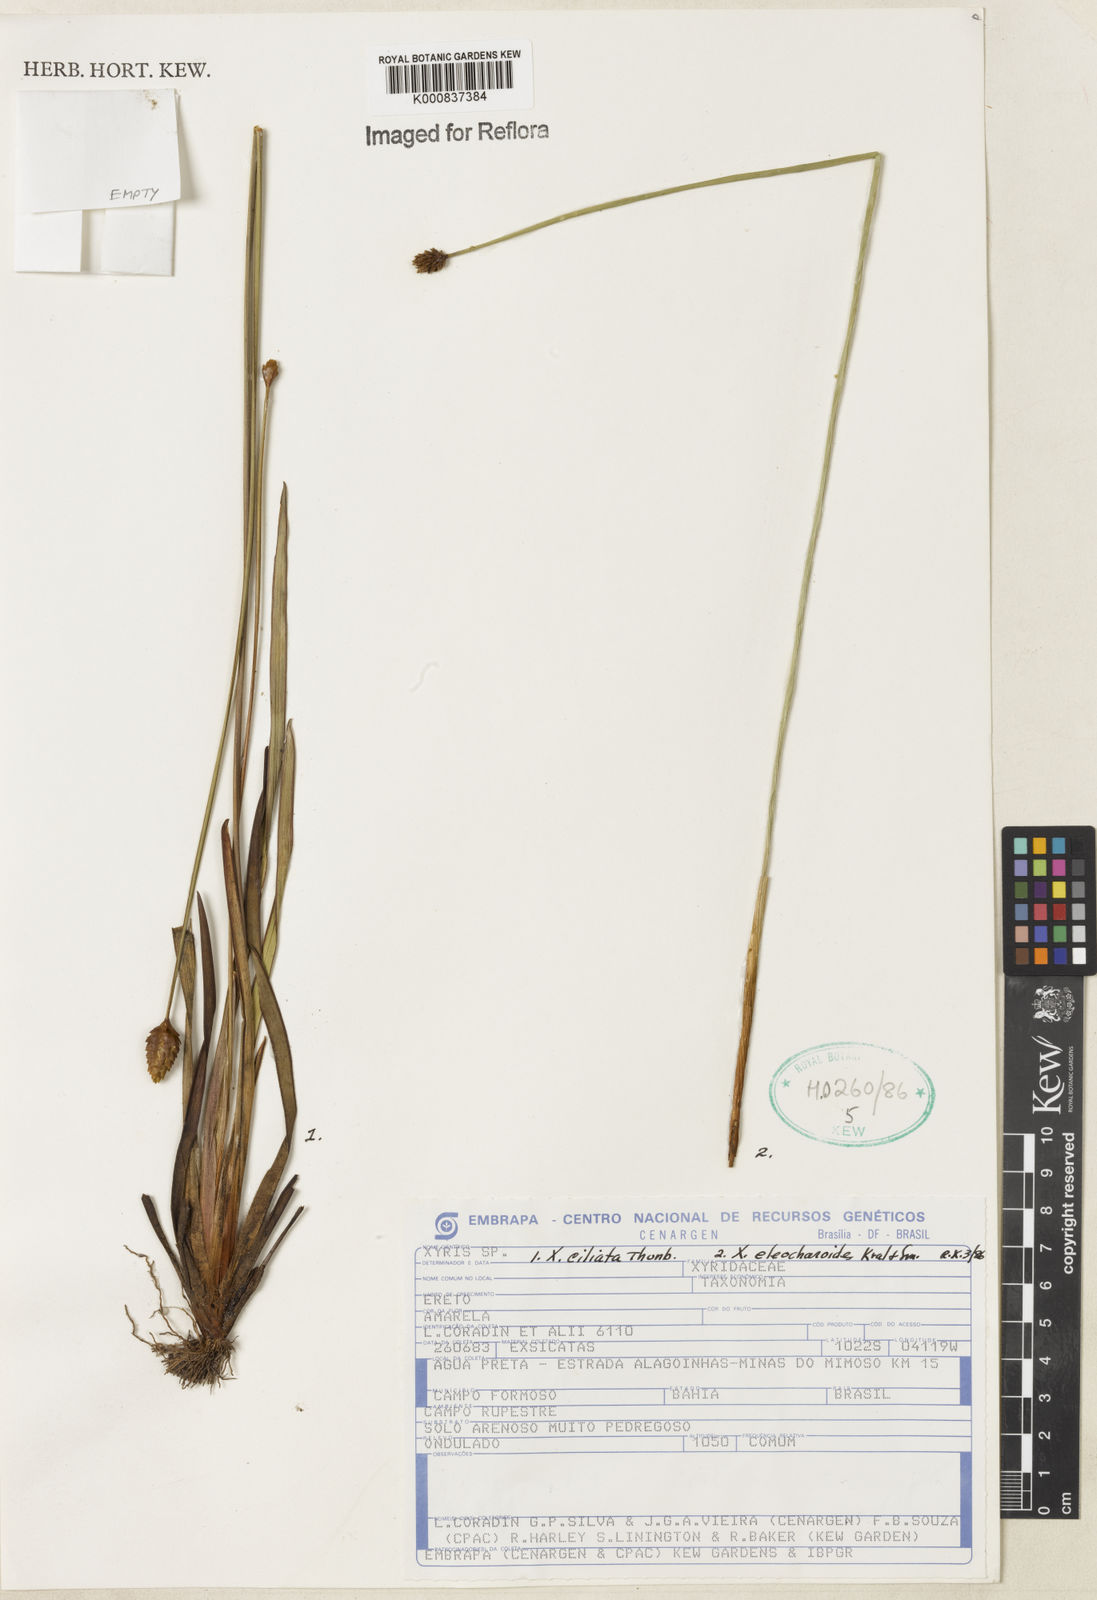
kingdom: Plantae
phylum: Tracheophyta
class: Liliopsida
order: Poales
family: Xyridaceae
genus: Xyris
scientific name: Xyris ciliata
